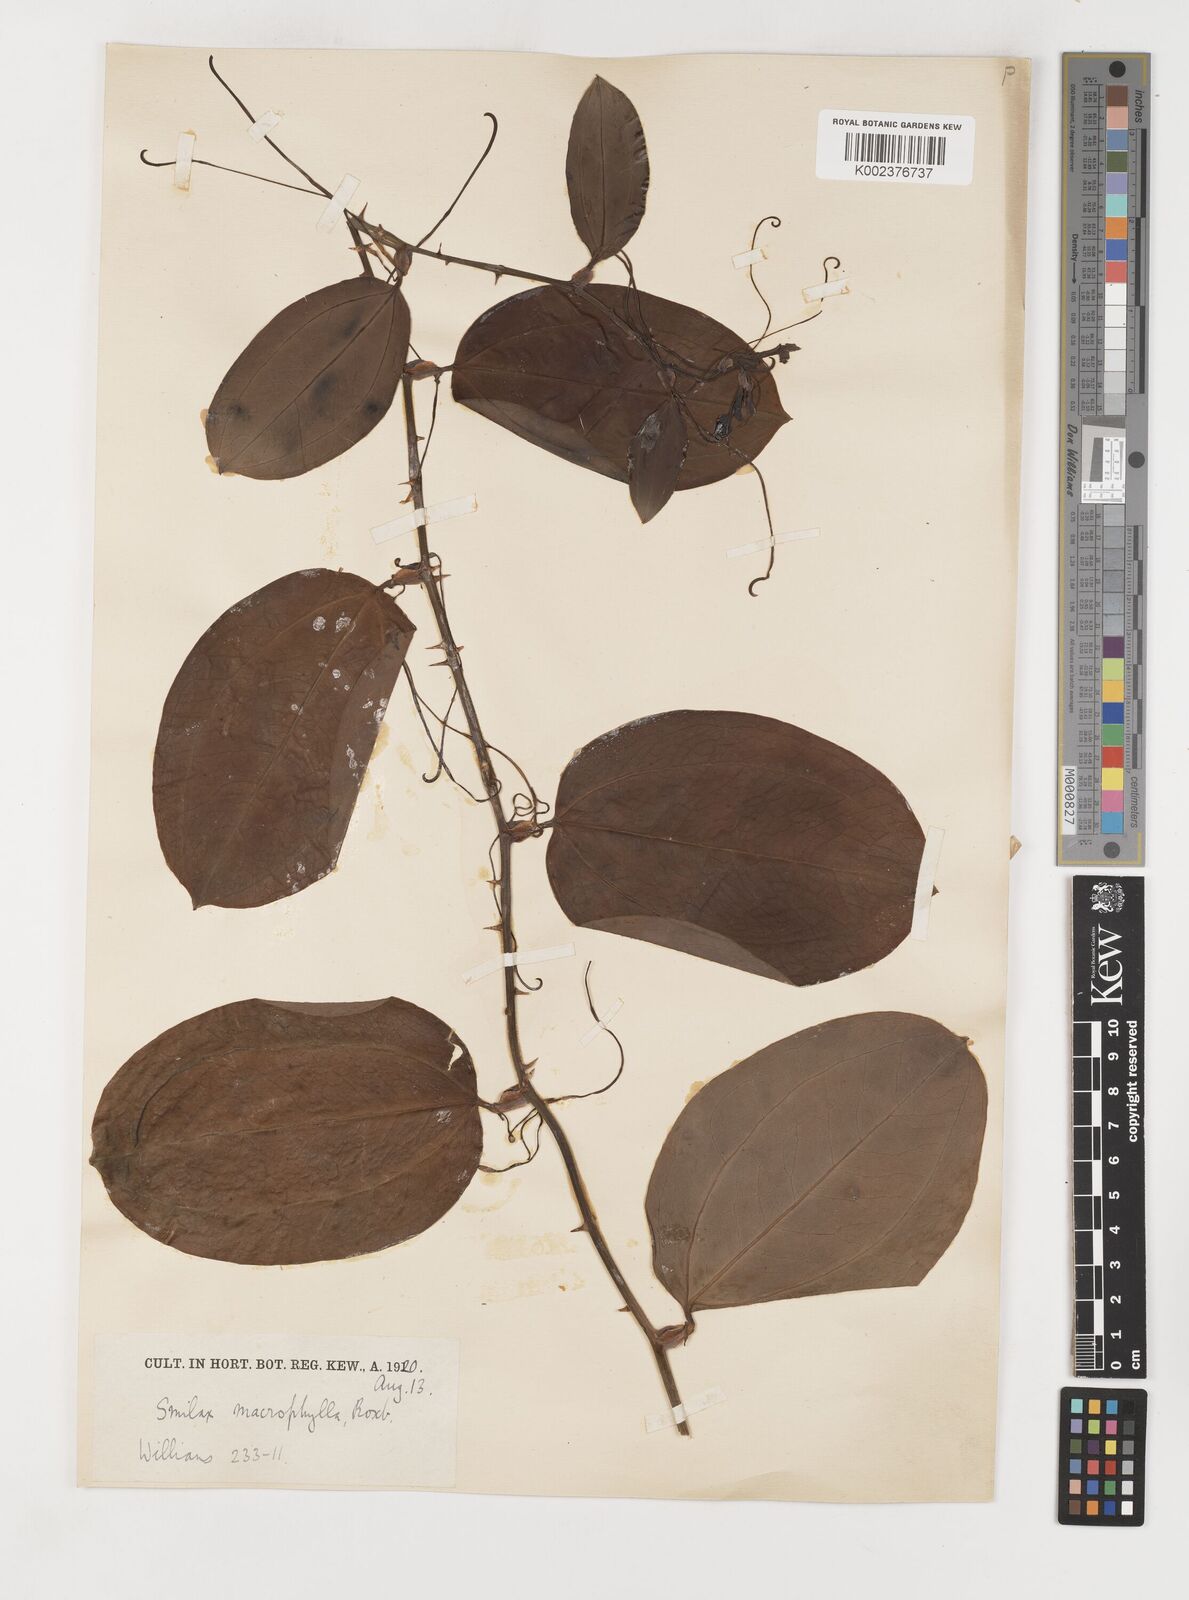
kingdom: Plantae
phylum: Tracheophyta
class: Liliopsida
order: Liliales
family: Smilacaceae
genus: Smilax
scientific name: Smilax
